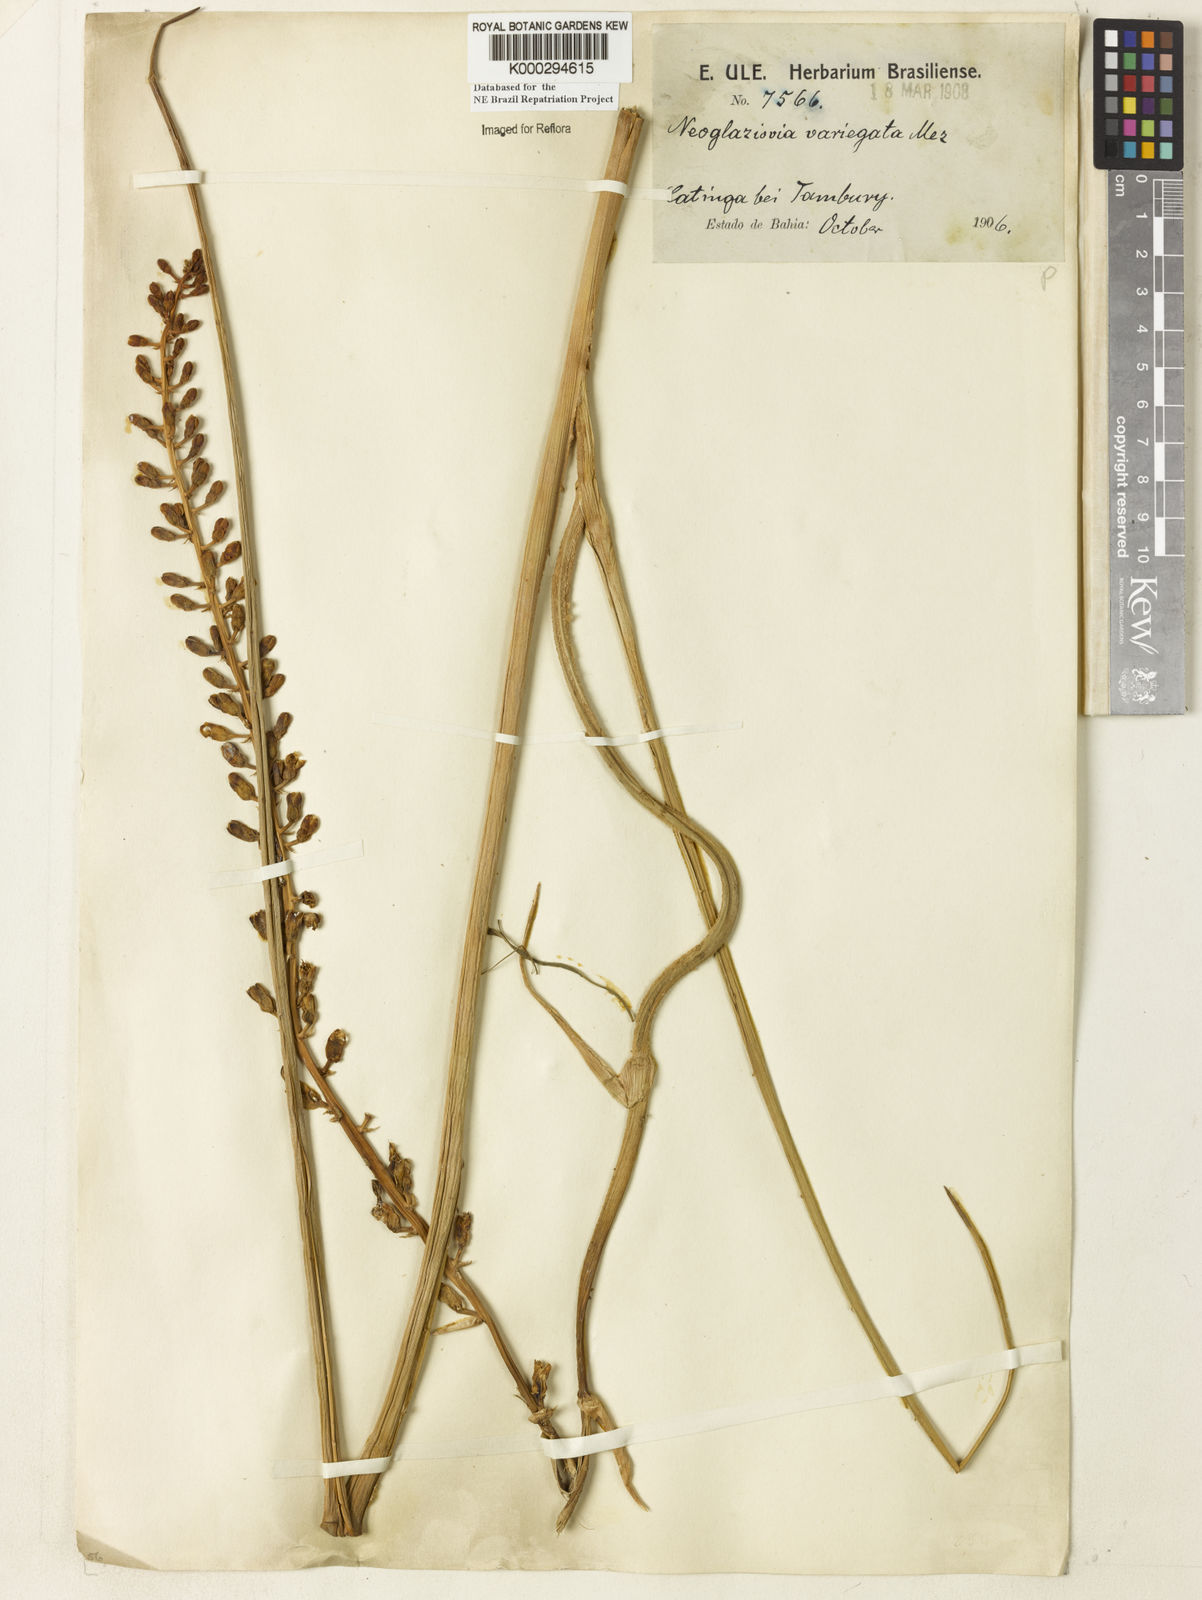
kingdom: Plantae
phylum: Tracheophyta
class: Liliopsida
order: Poales
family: Bromeliaceae
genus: Neoglaziovia
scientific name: Neoglaziovia variegata
